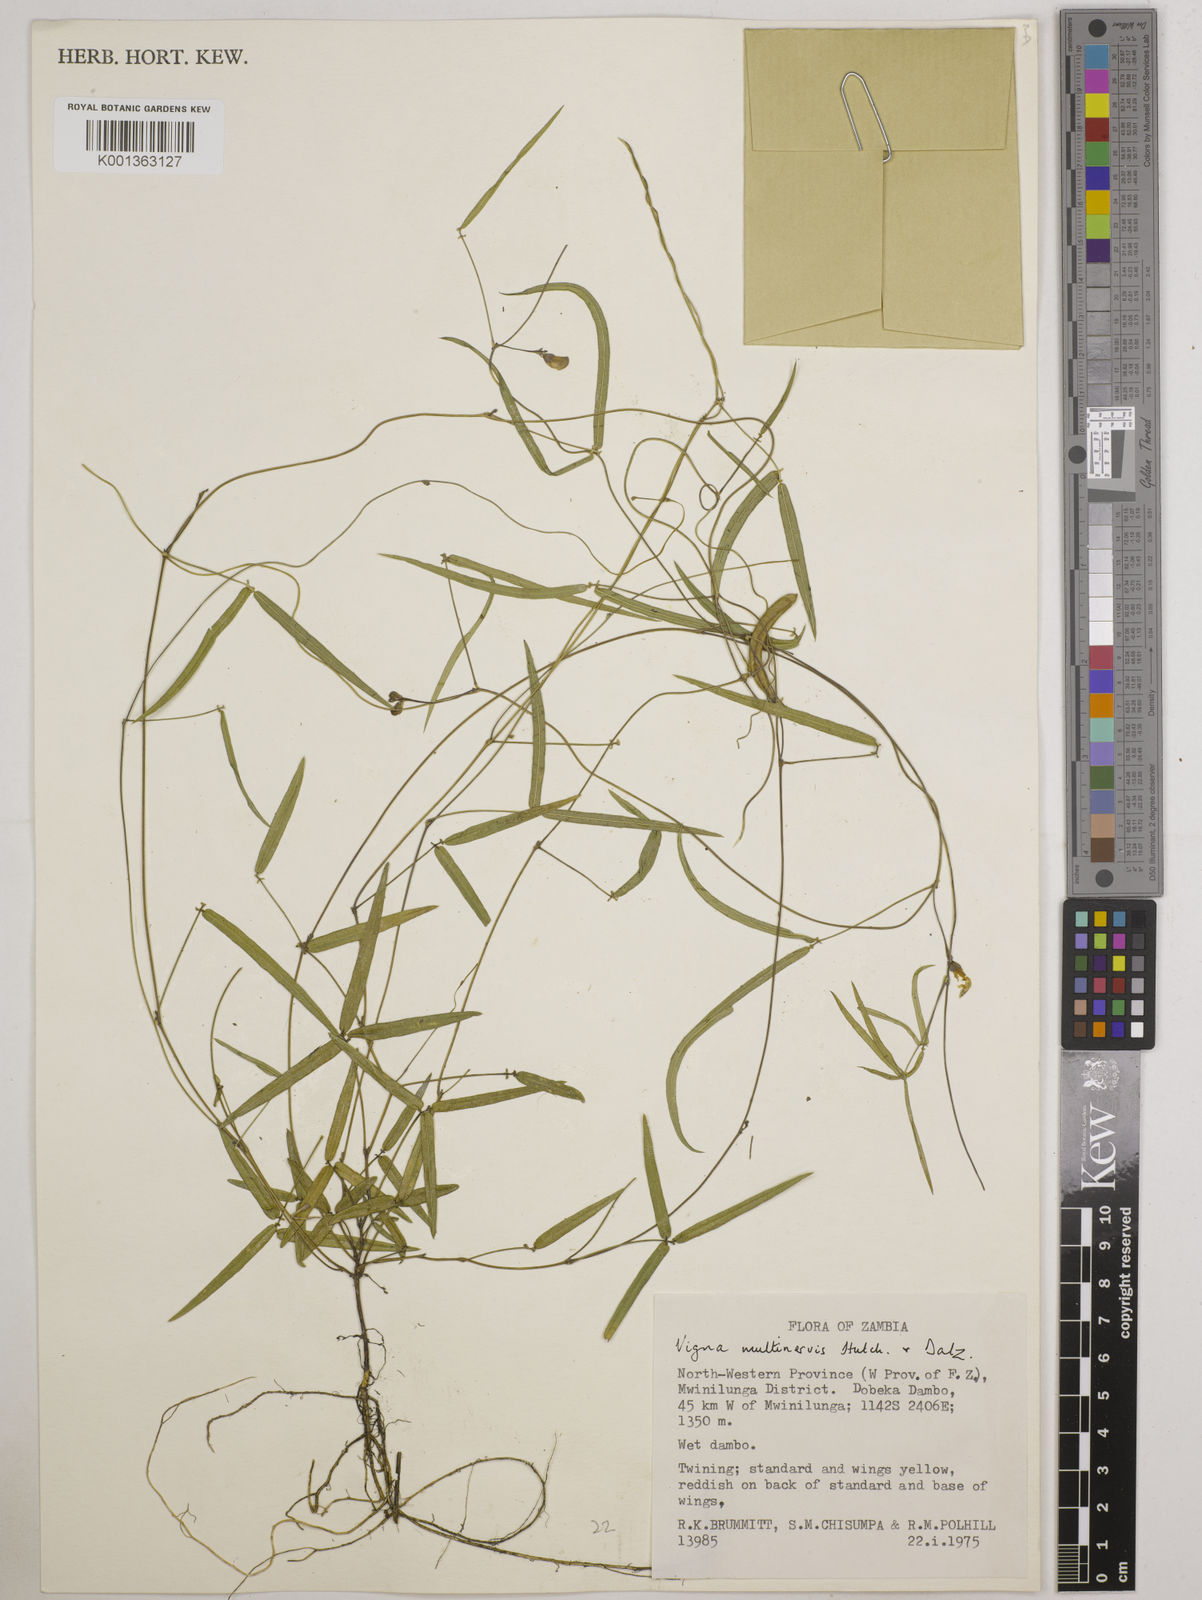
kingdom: Plantae
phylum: Tracheophyta
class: Magnoliopsida
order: Fabales
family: Fabaceae
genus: Vigna
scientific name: Vigna multinervis
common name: Fula-pulaar
